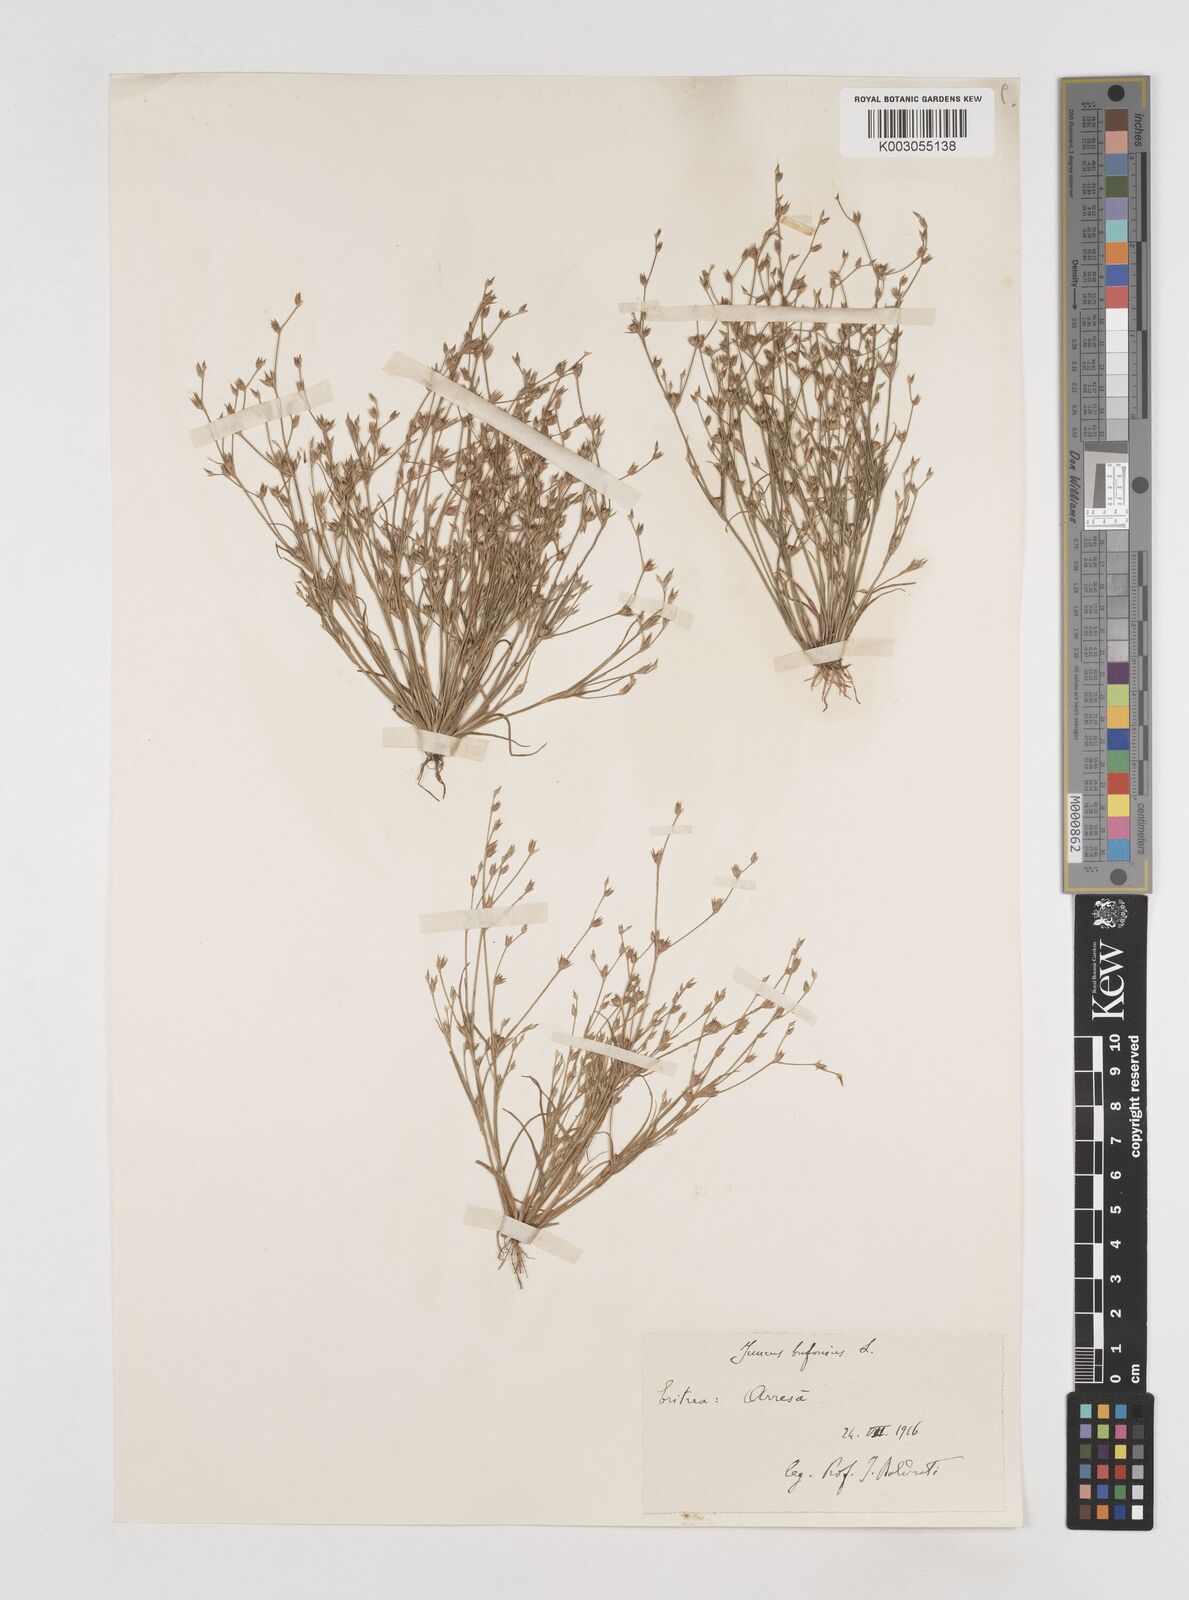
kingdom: Plantae
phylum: Tracheophyta
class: Liliopsida
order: Poales
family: Juncaceae
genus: Juncus
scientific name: Juncus bufonius
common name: Toad rush
